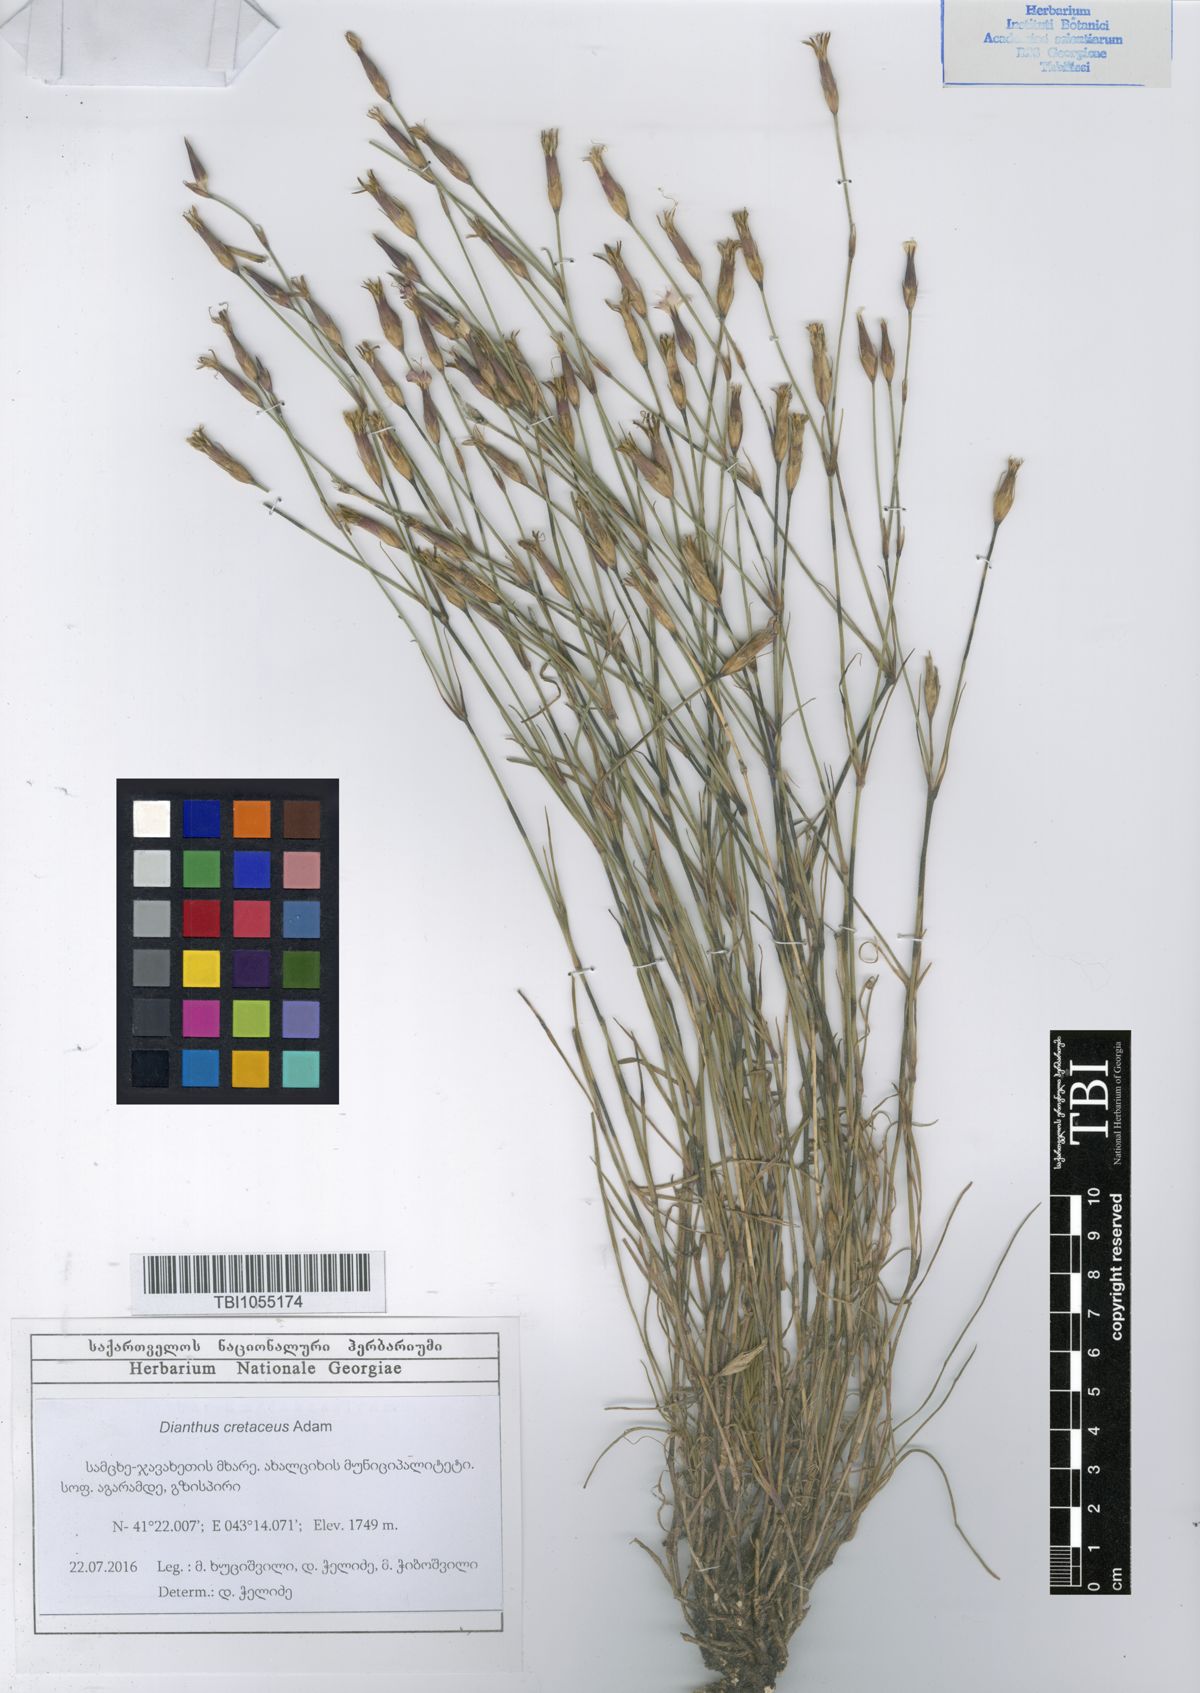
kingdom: Plantae
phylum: Tracheophyta
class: Magnoliopsida
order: Caryophyllales
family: Caryophyllaceae
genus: Dianthus
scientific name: Dianthus cretaceus
